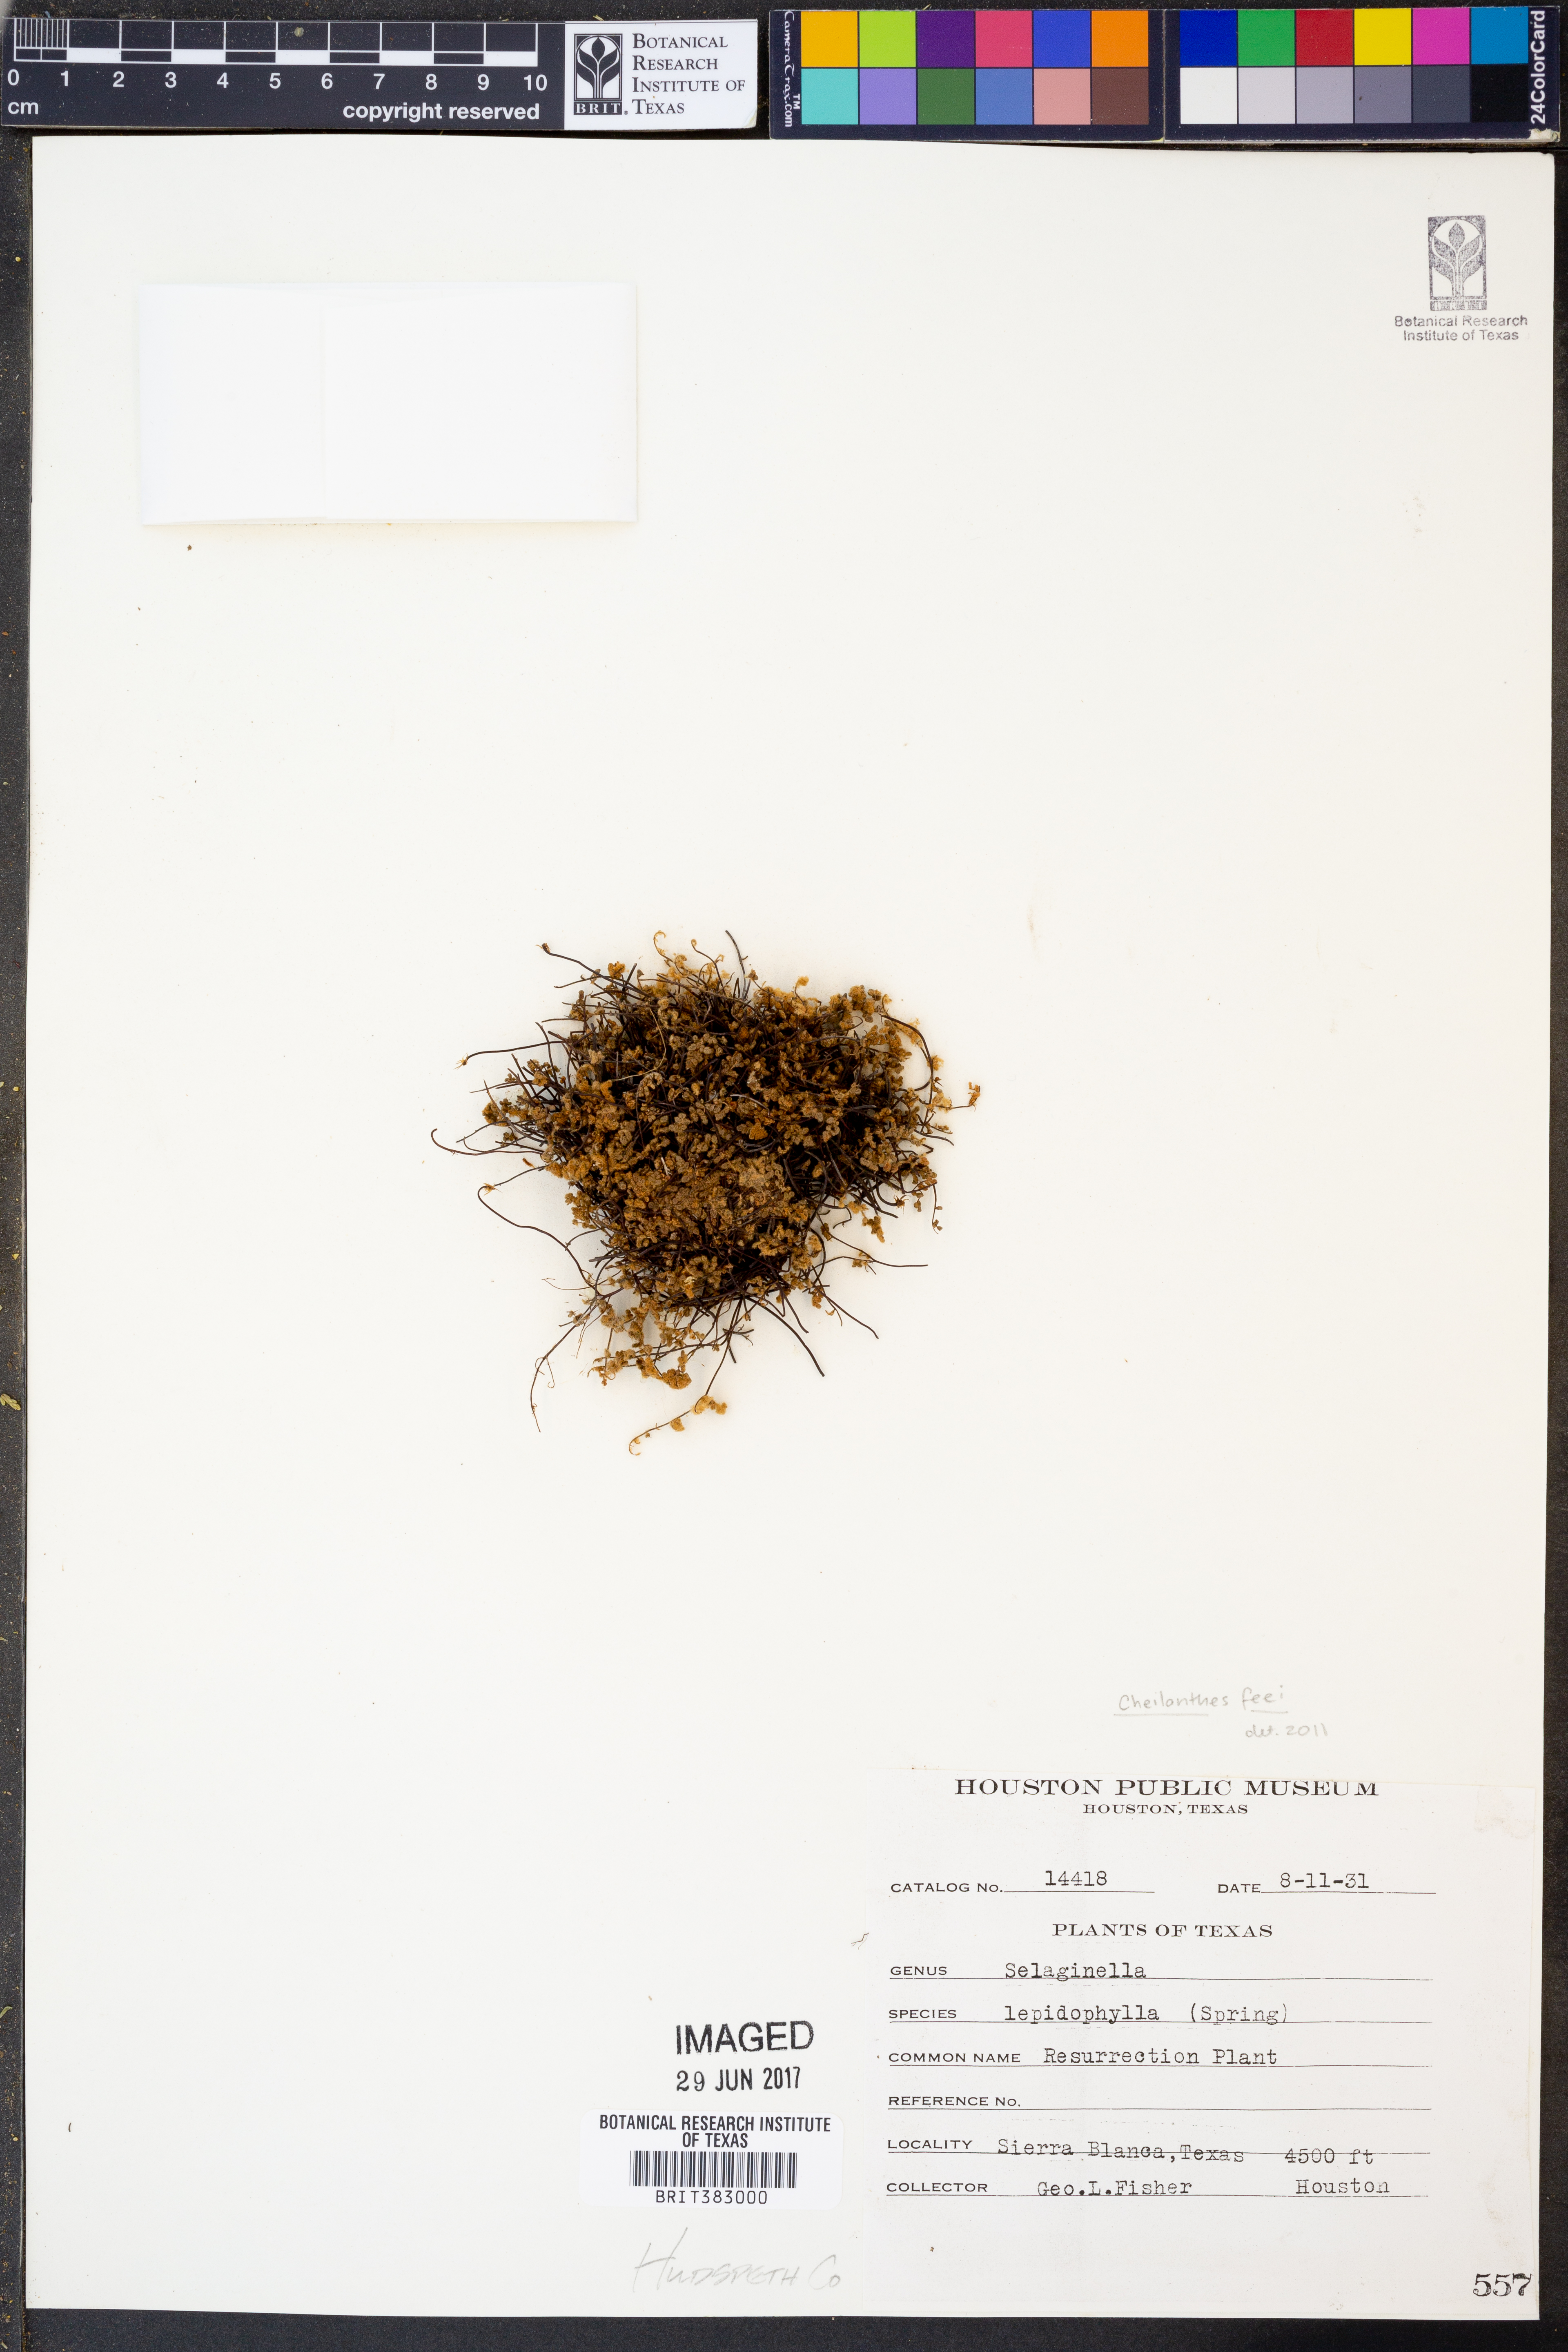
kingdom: Plantae
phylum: Tracheophyta
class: Lycopodiopsida
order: Selaginellales
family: Selaginellaceae
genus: Selaginella
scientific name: Selaginella lepidophylla
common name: Rose-of-jericho
